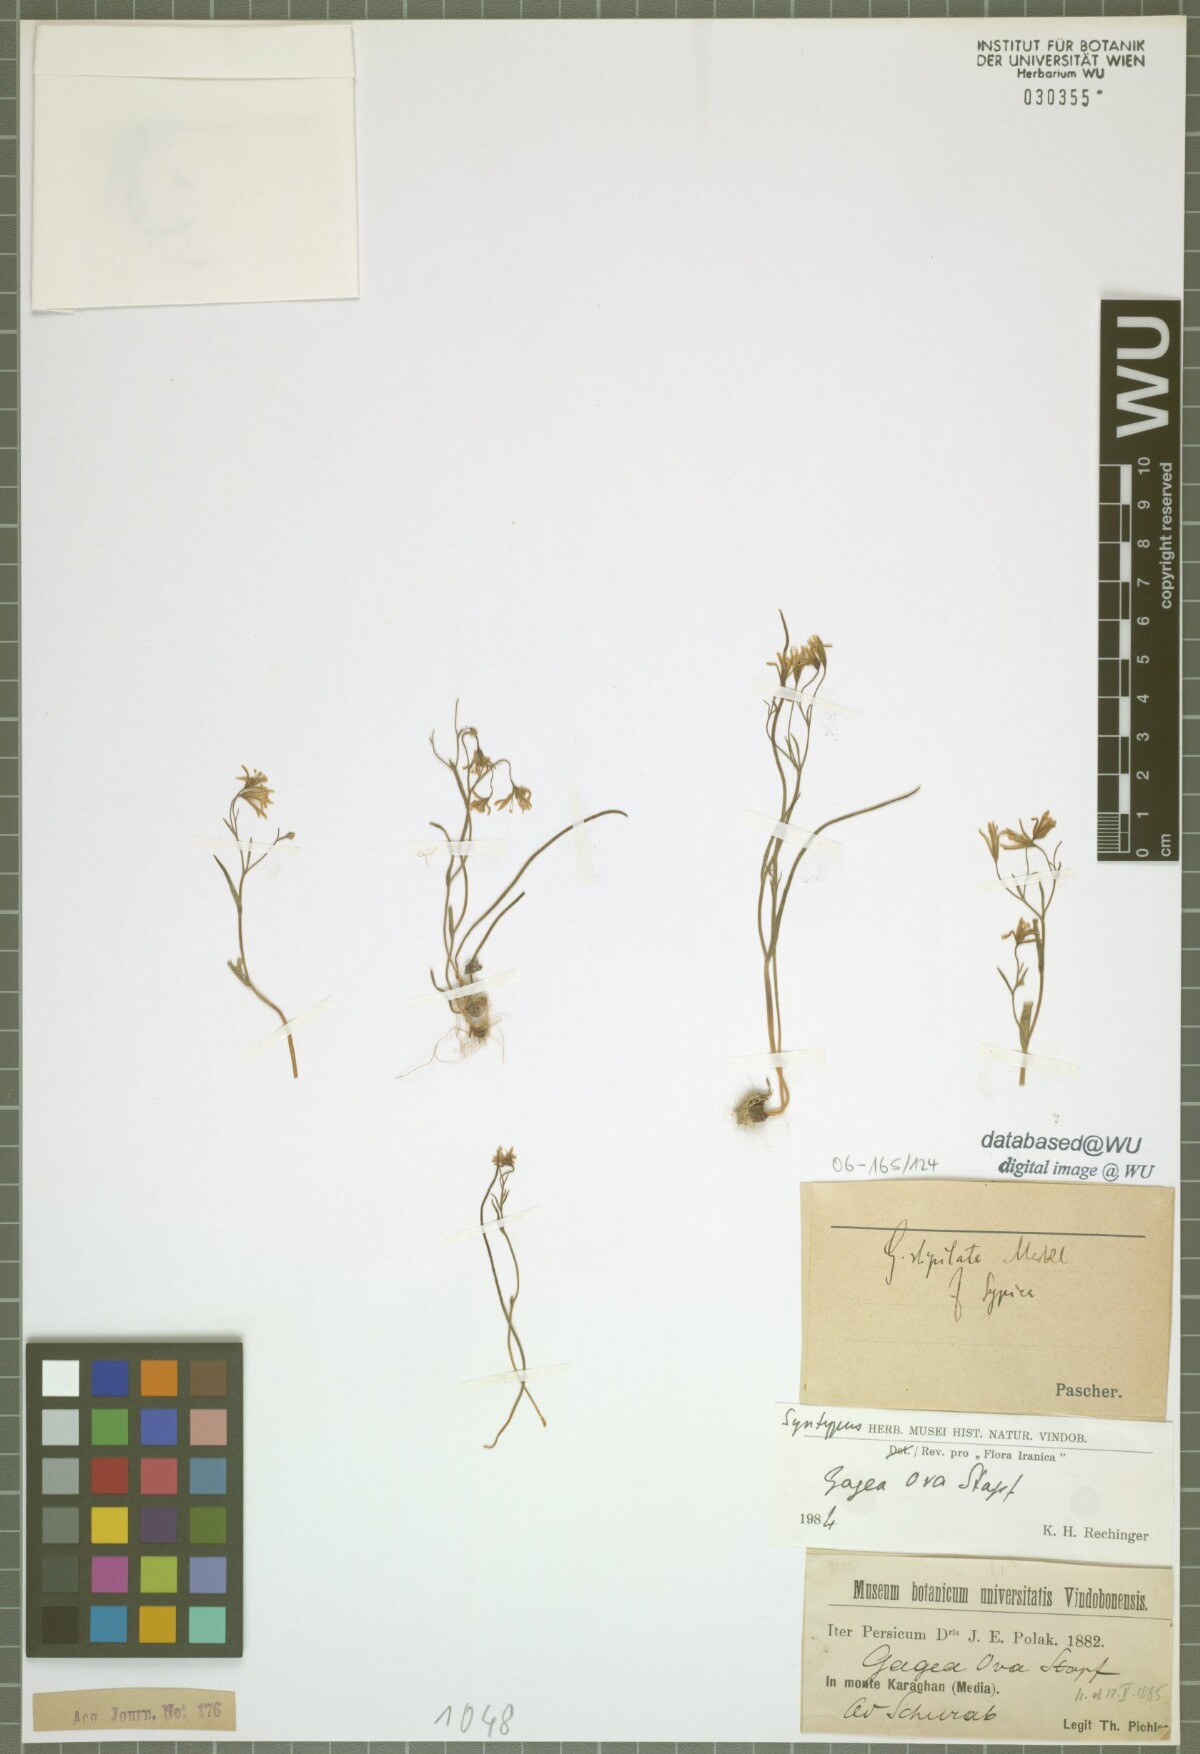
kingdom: Plantae
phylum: Tracheophyta
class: Liliopsida
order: Liliales
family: Liliaceae
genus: Gagea
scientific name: Gagea kunawurensis
